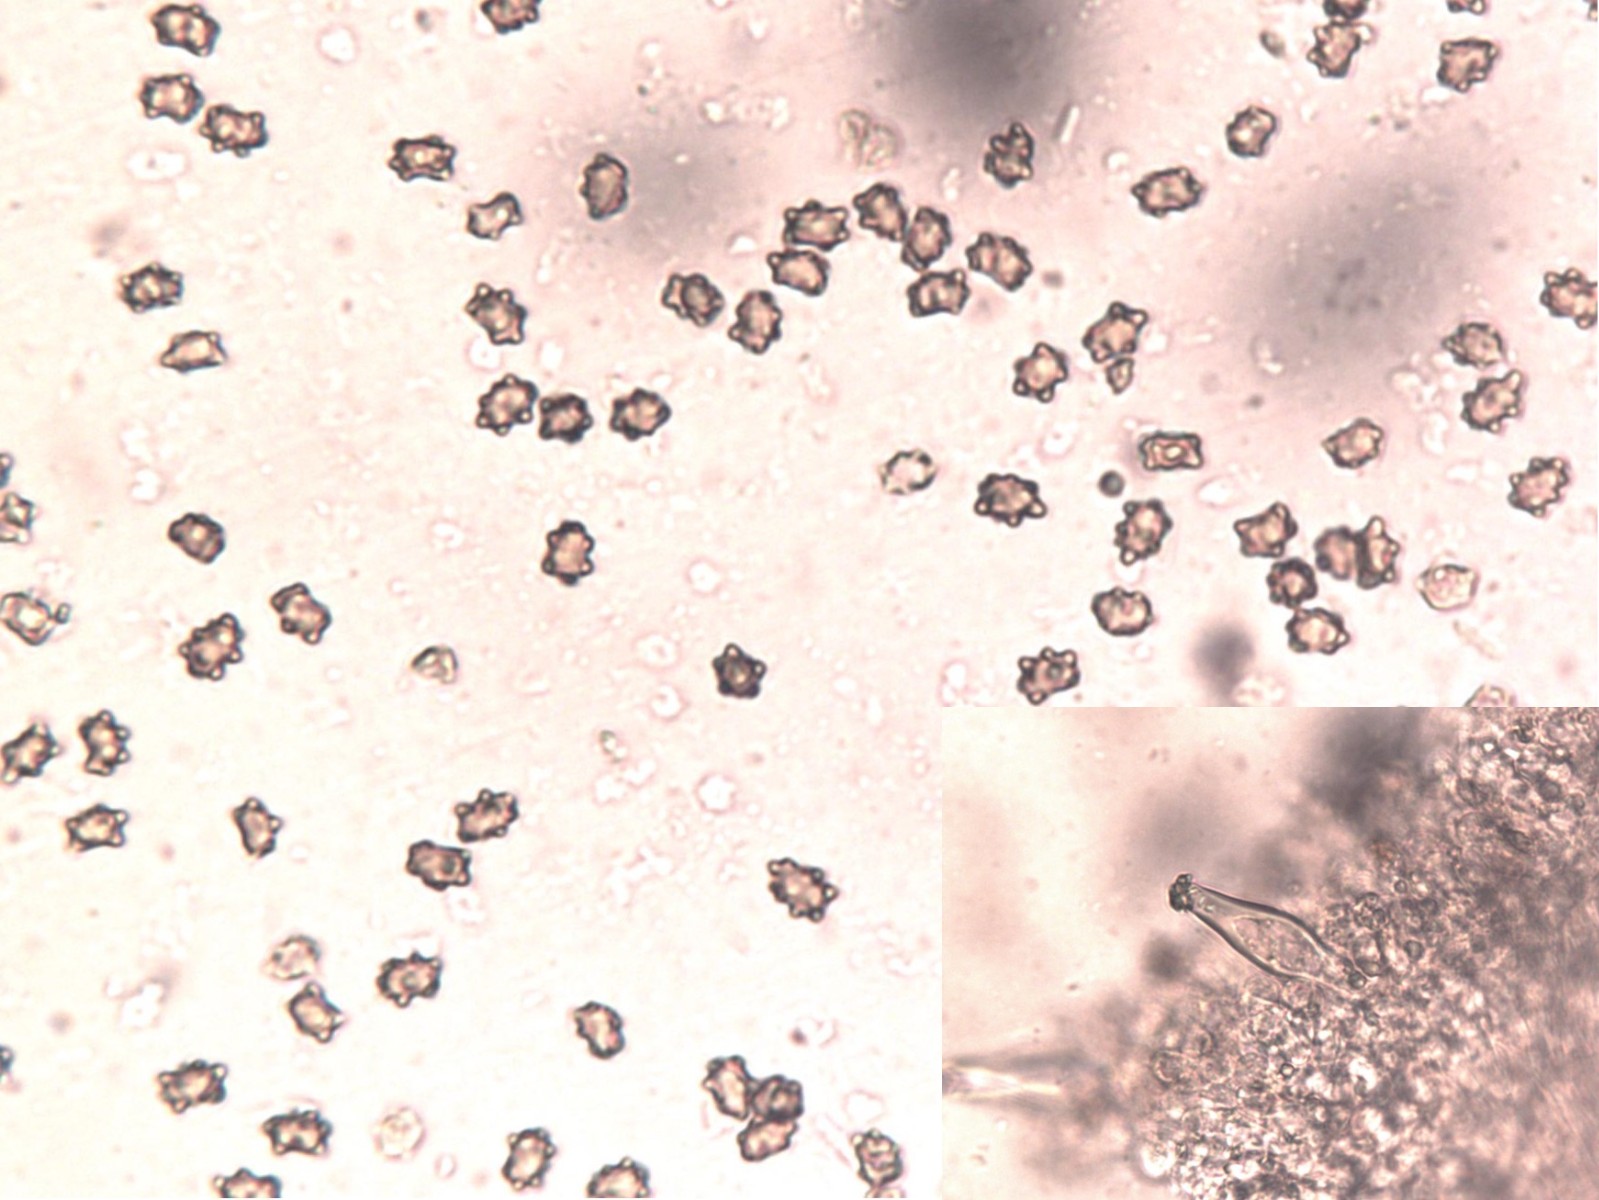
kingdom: Fungi
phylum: Basidiomycota
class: Agaricomycetes
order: Agaricales
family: Inocybaceae
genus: Inocybe
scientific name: Inocybe occulta
